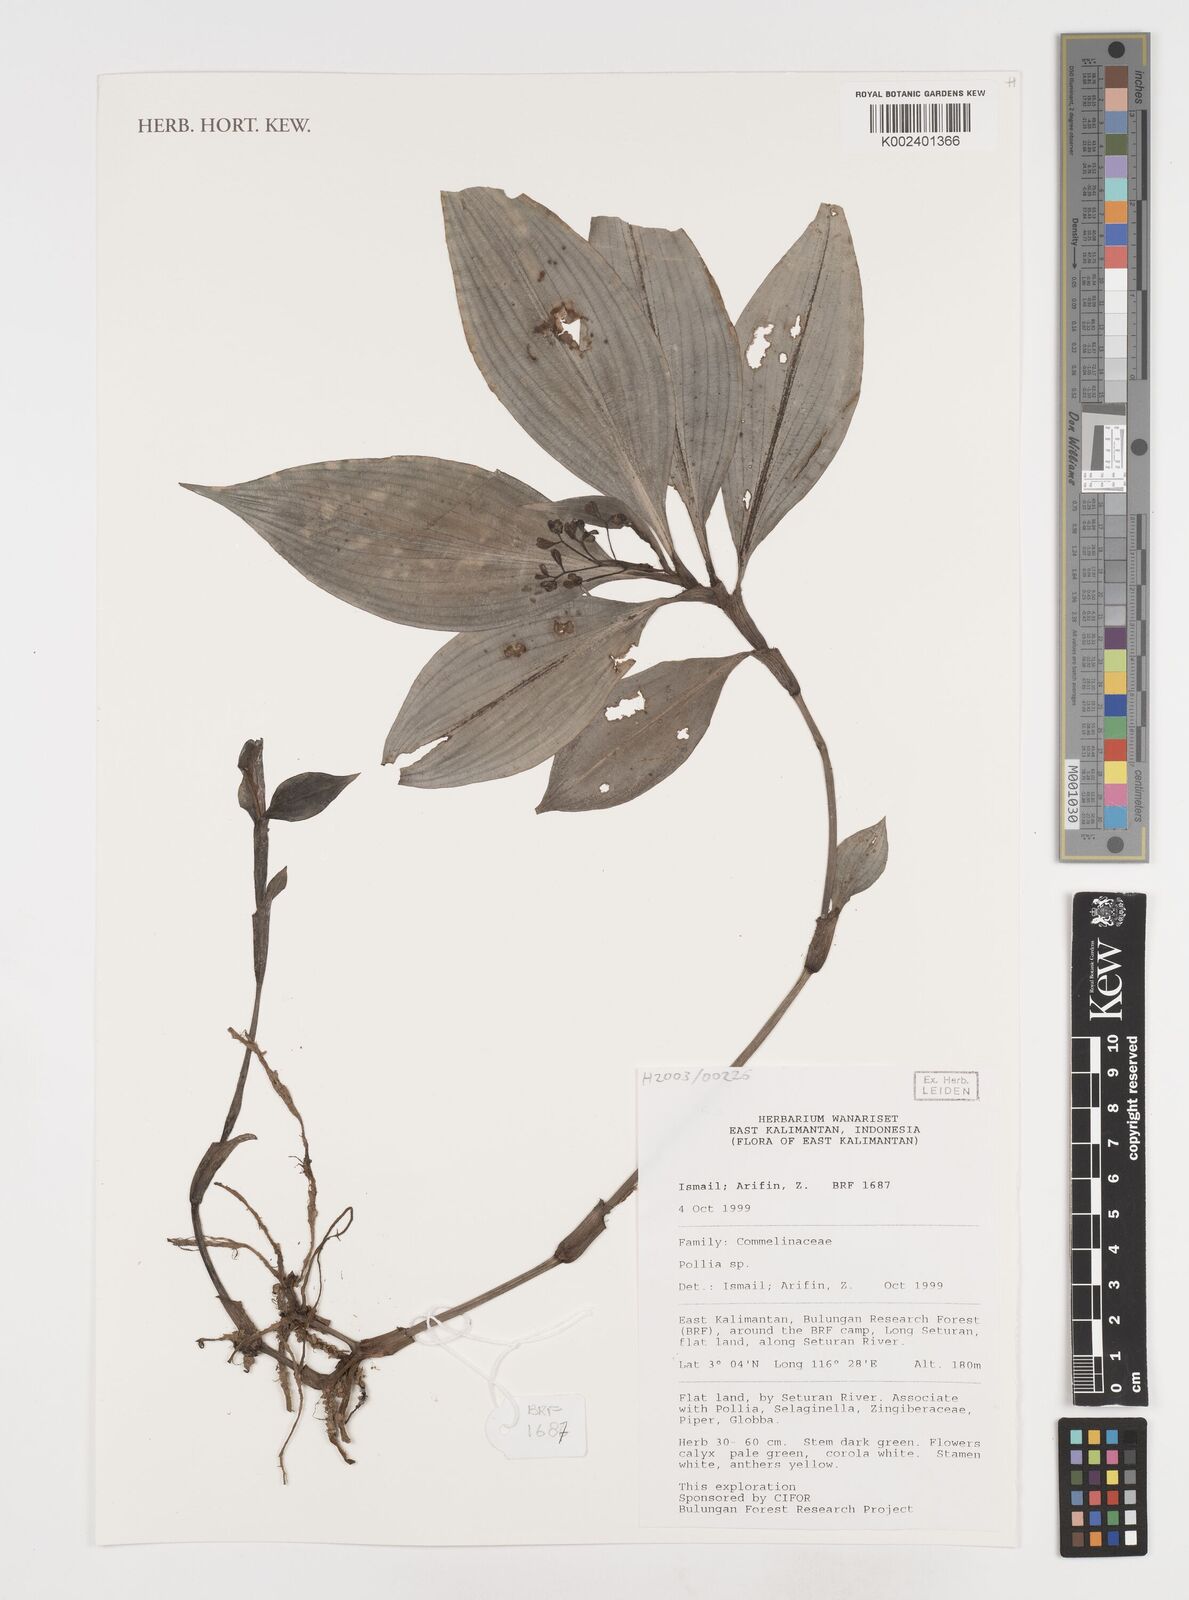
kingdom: Plantae
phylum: Tracheophyta
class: Liliopsida
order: Commelinales
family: Commelinaceae
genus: Pollia
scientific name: Pollia
